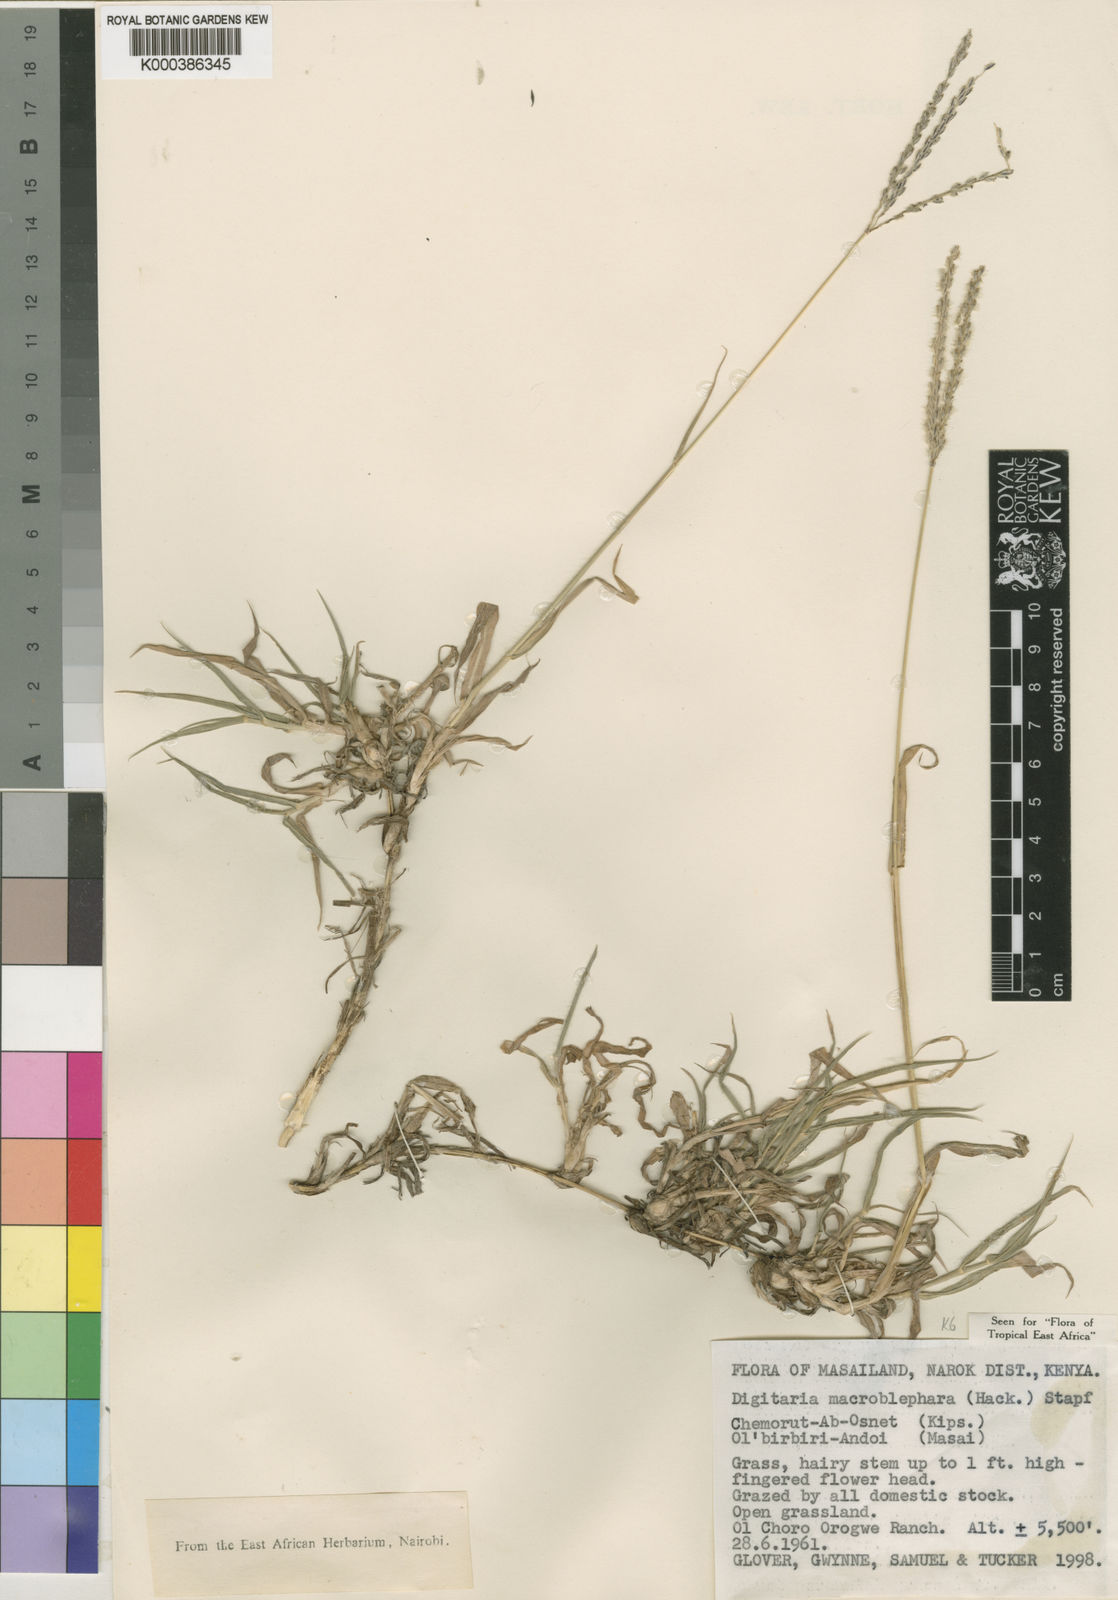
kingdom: Plantae
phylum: Tracheophyta
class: Liliopsida
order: Poales
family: Poaceae
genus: Digitaria
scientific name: Digitaria macroblephara
